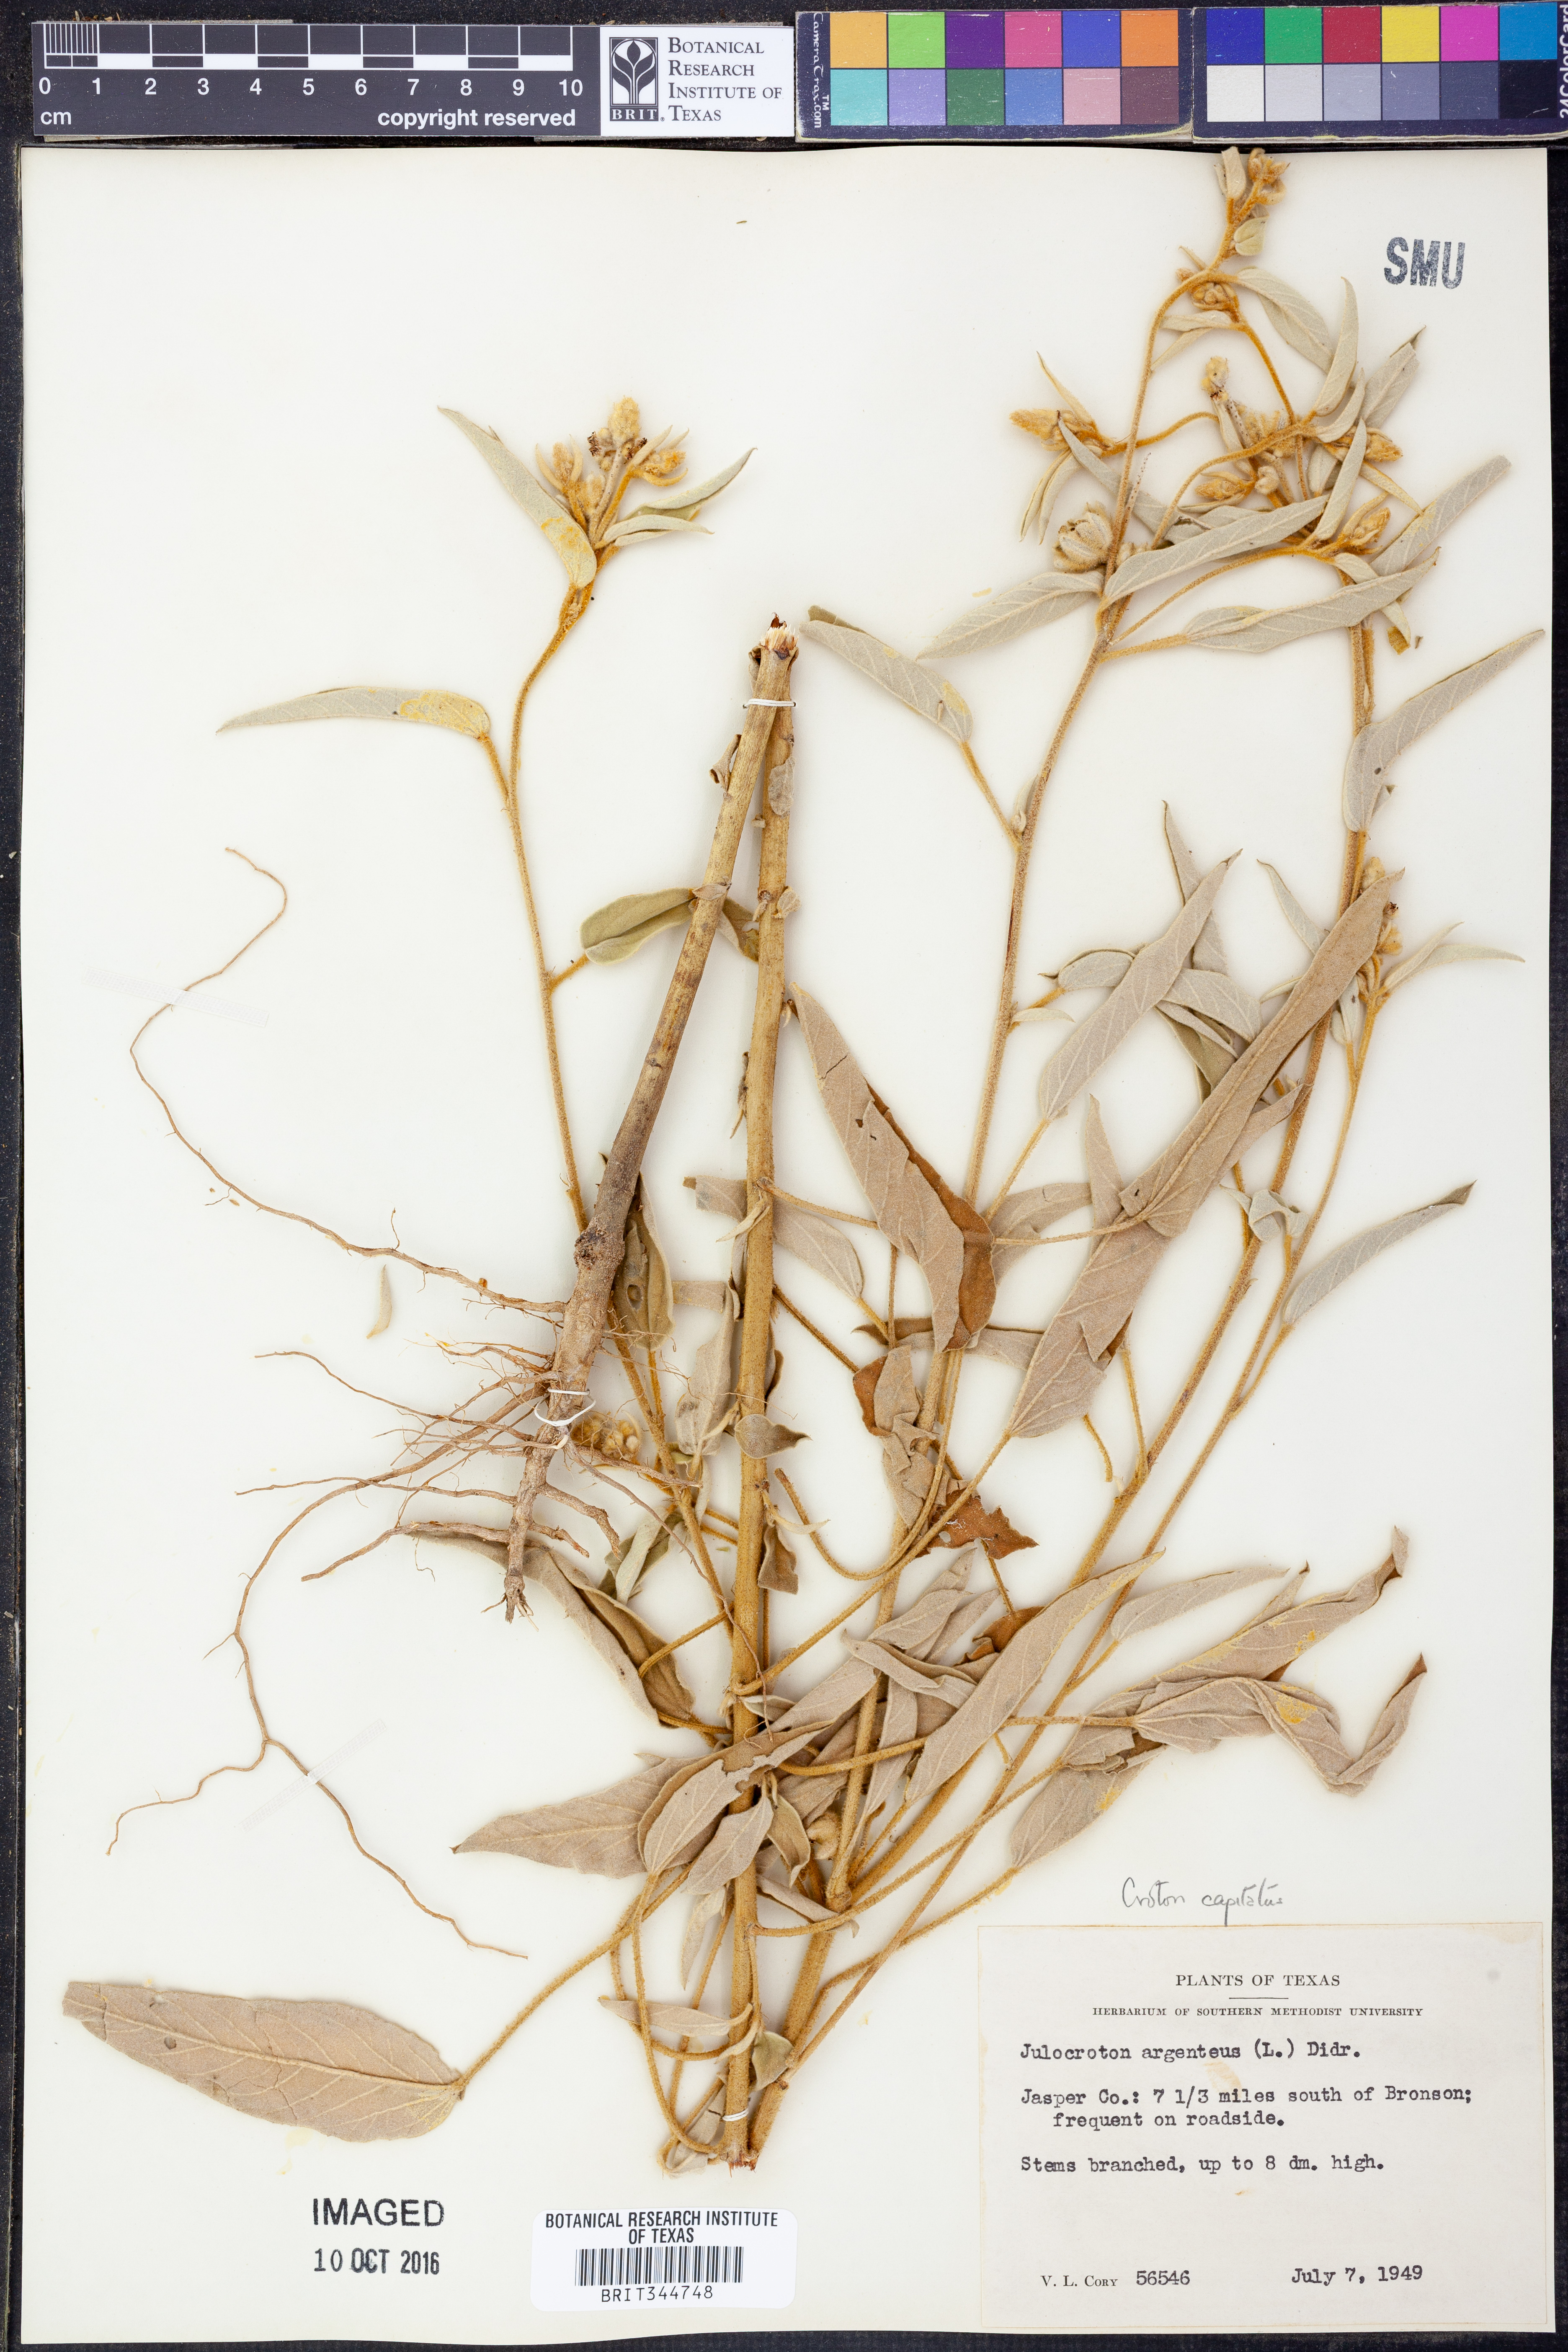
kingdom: Plantae
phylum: Tracheophyta
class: Magnoliopsida
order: Malpighiales
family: Euphorbiaceae
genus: Croton
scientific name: Croton capitatus
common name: Woolly croton
